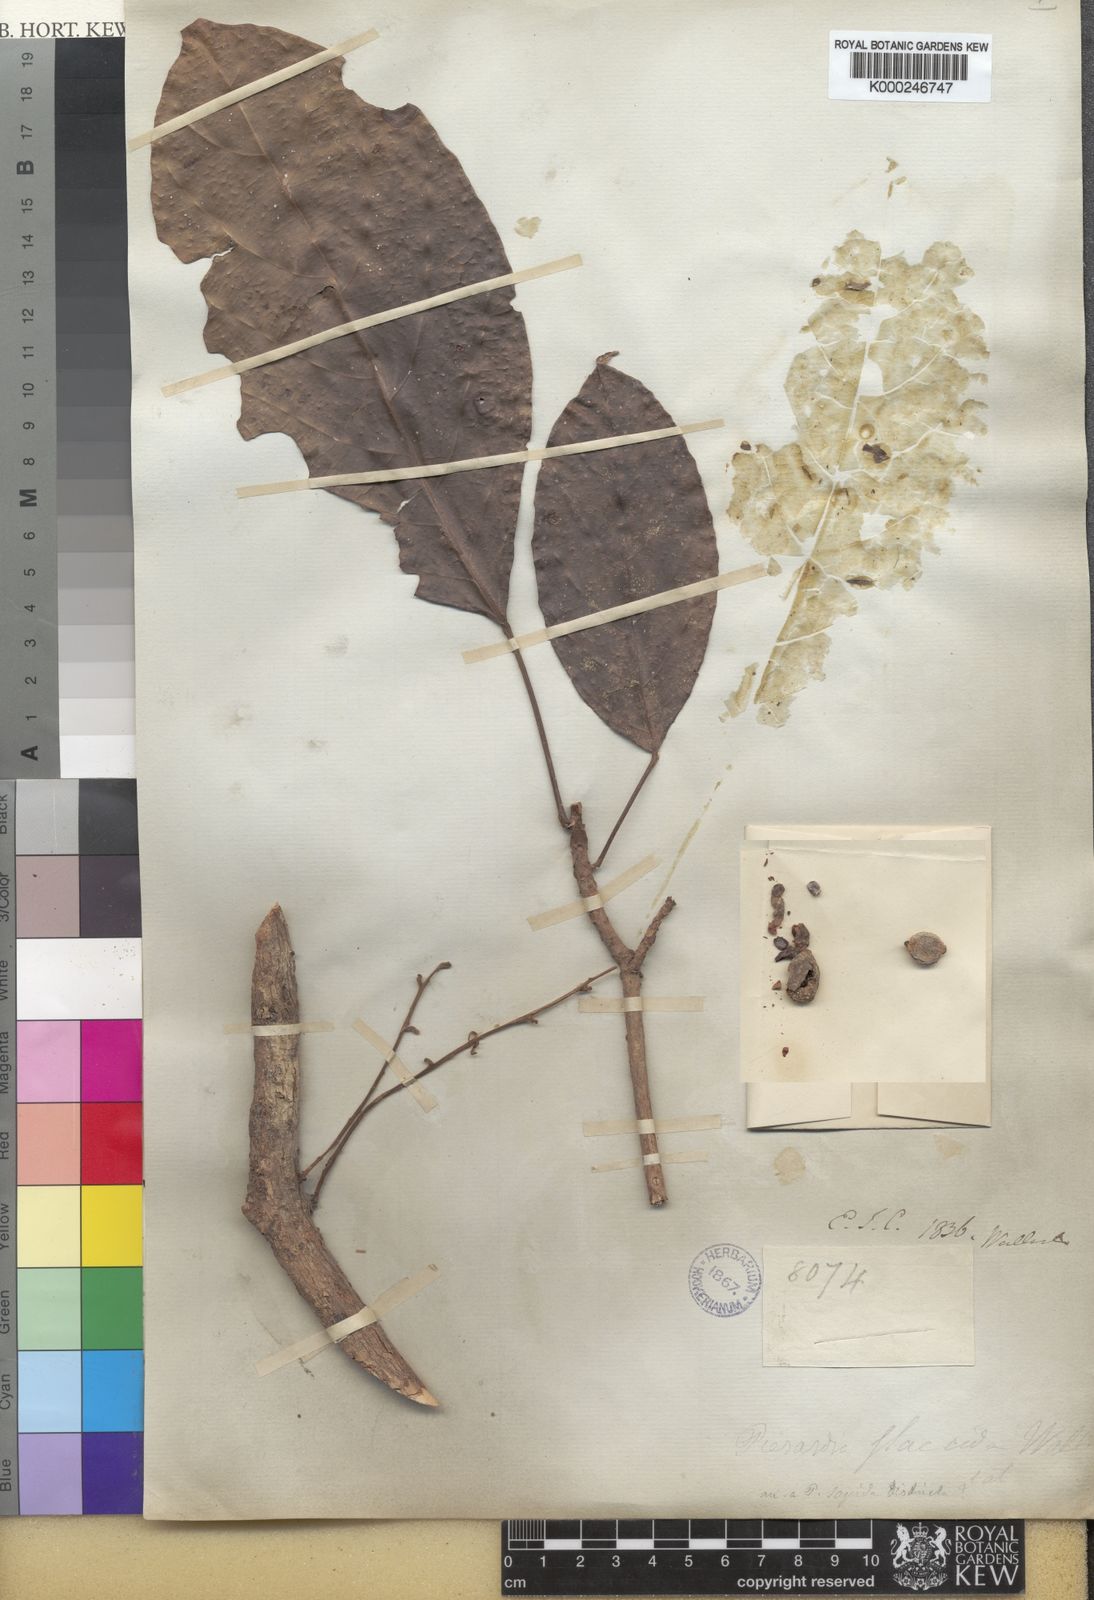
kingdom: Plantae
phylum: Tracheophyta
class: Magnoliopsida
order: Malpighiales
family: Phyllanthaceae
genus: Baccaurea
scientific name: Baccaurea ramiflora
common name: Baccaurea
